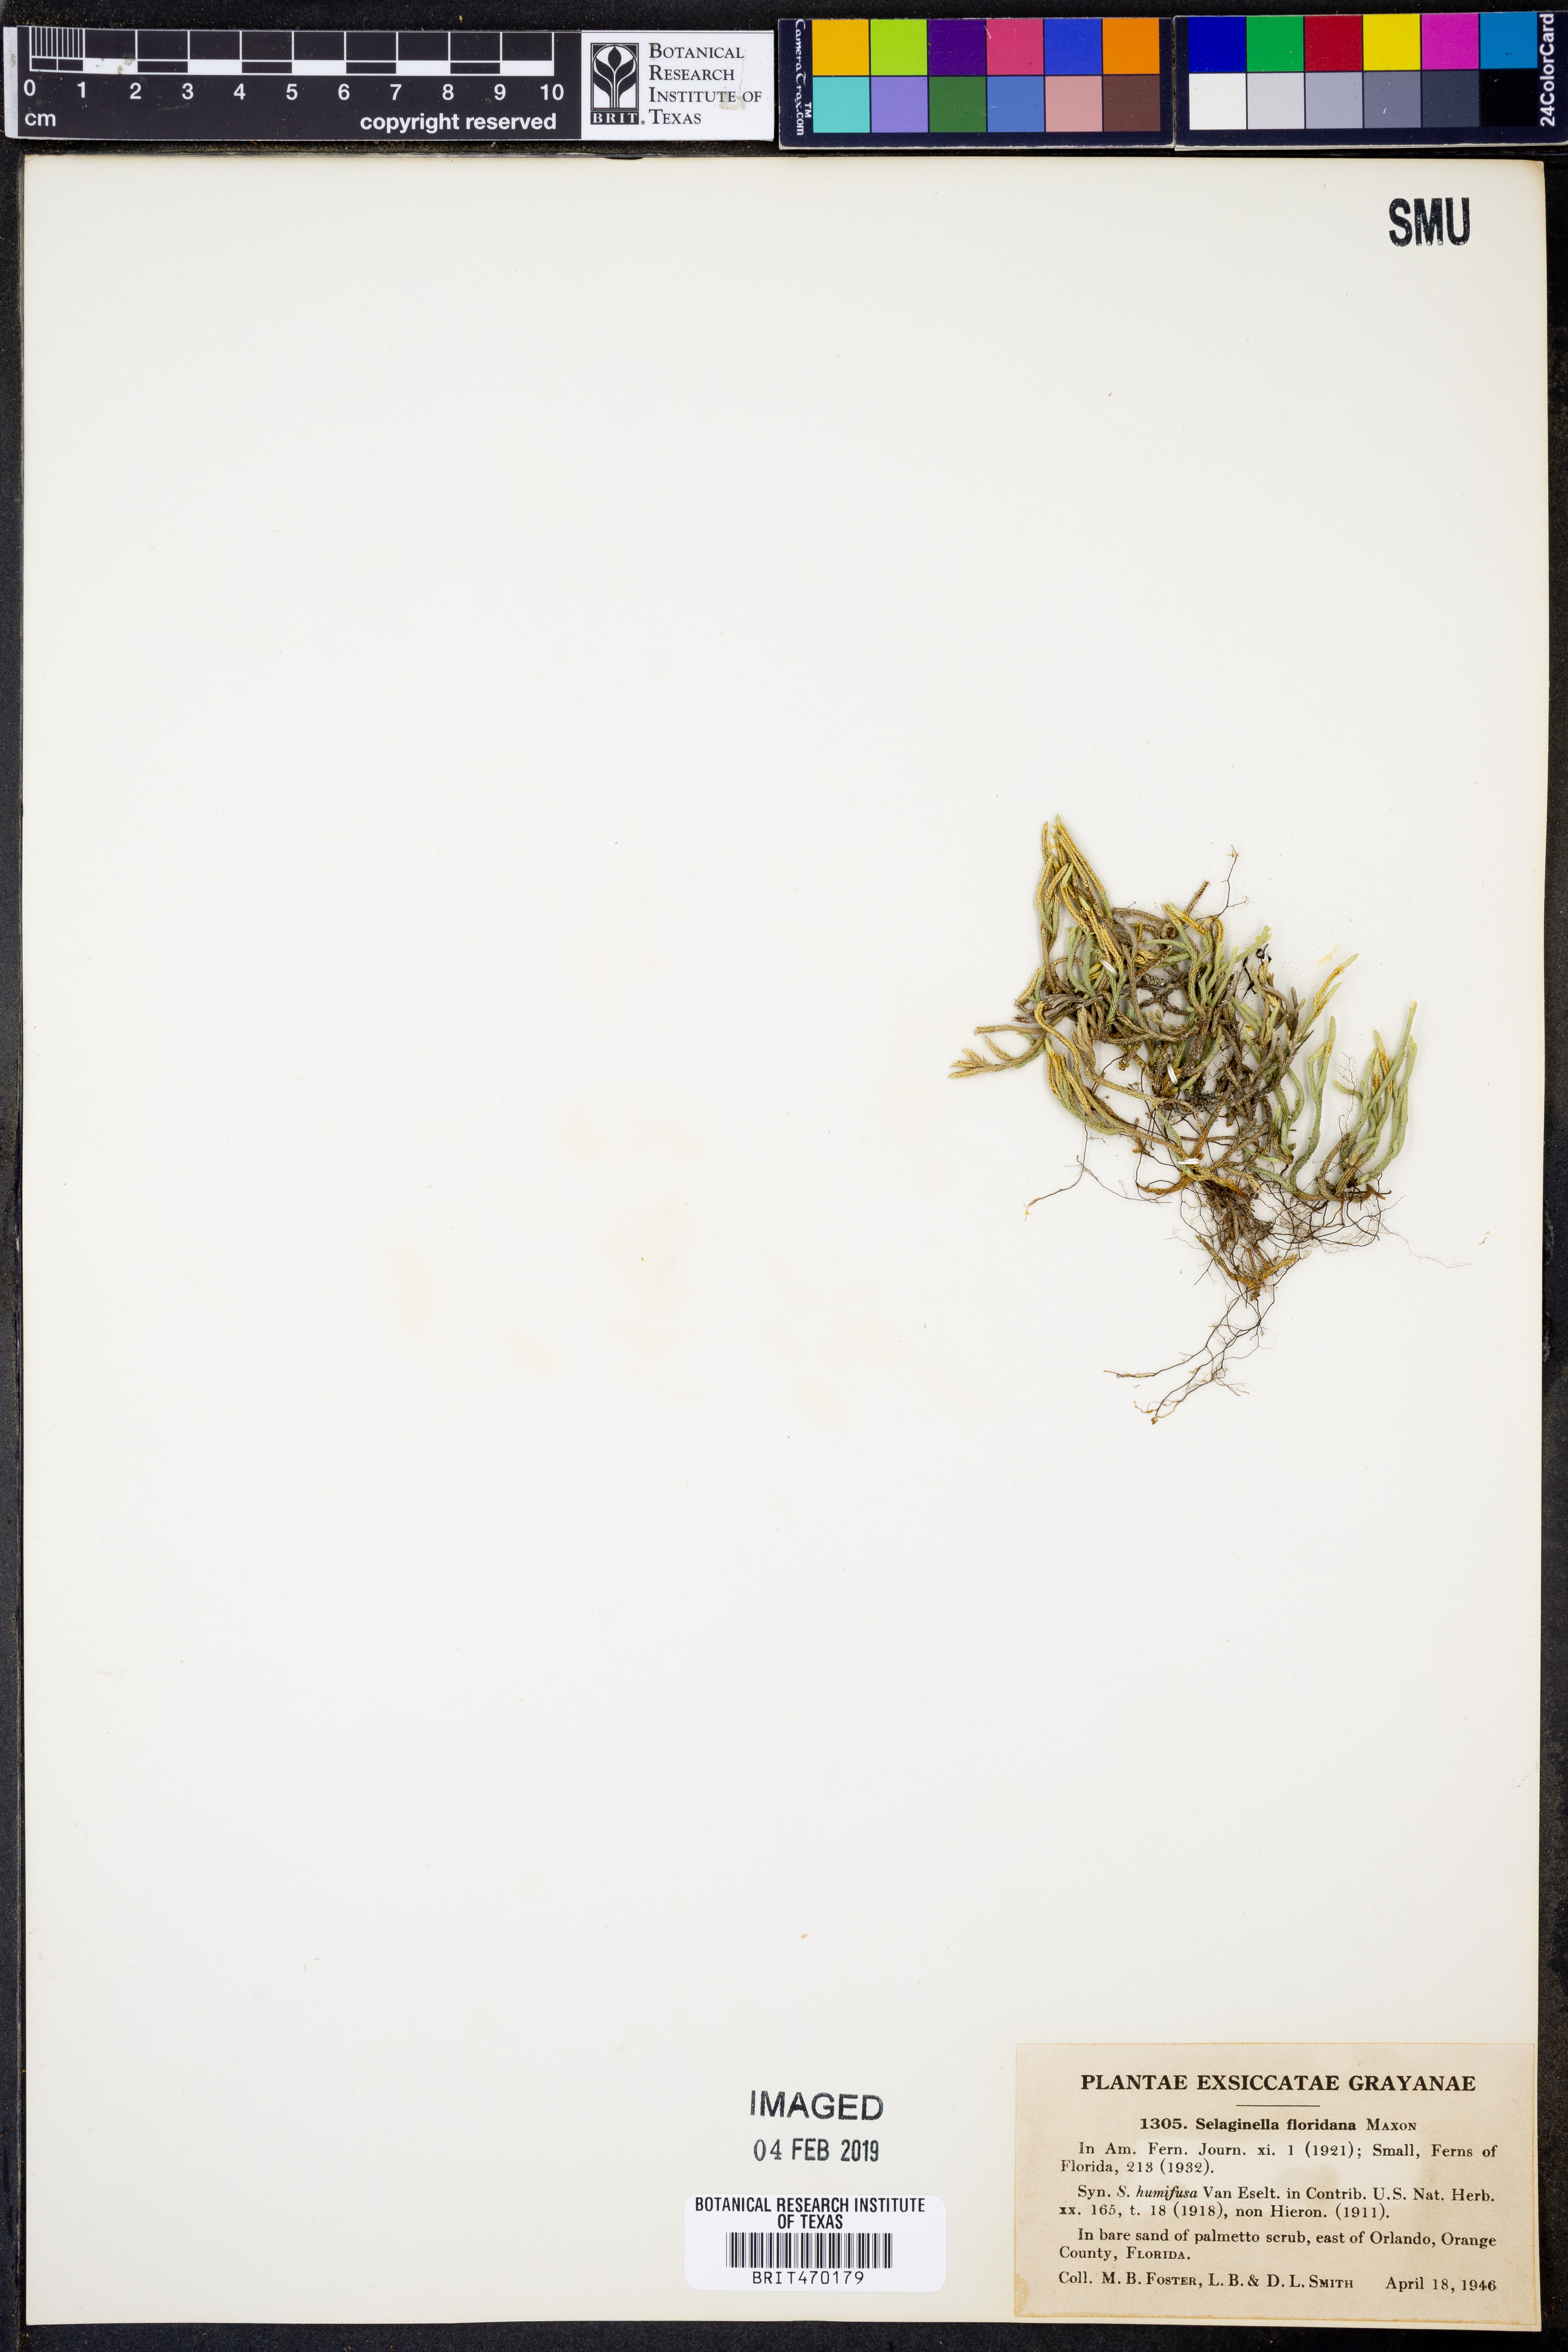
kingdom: Plantae
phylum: Tracheophyta
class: Lycopodiopsida
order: Selaginellales
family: Selaginellaceae
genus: Selaginella
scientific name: Selaginella acanthonota
